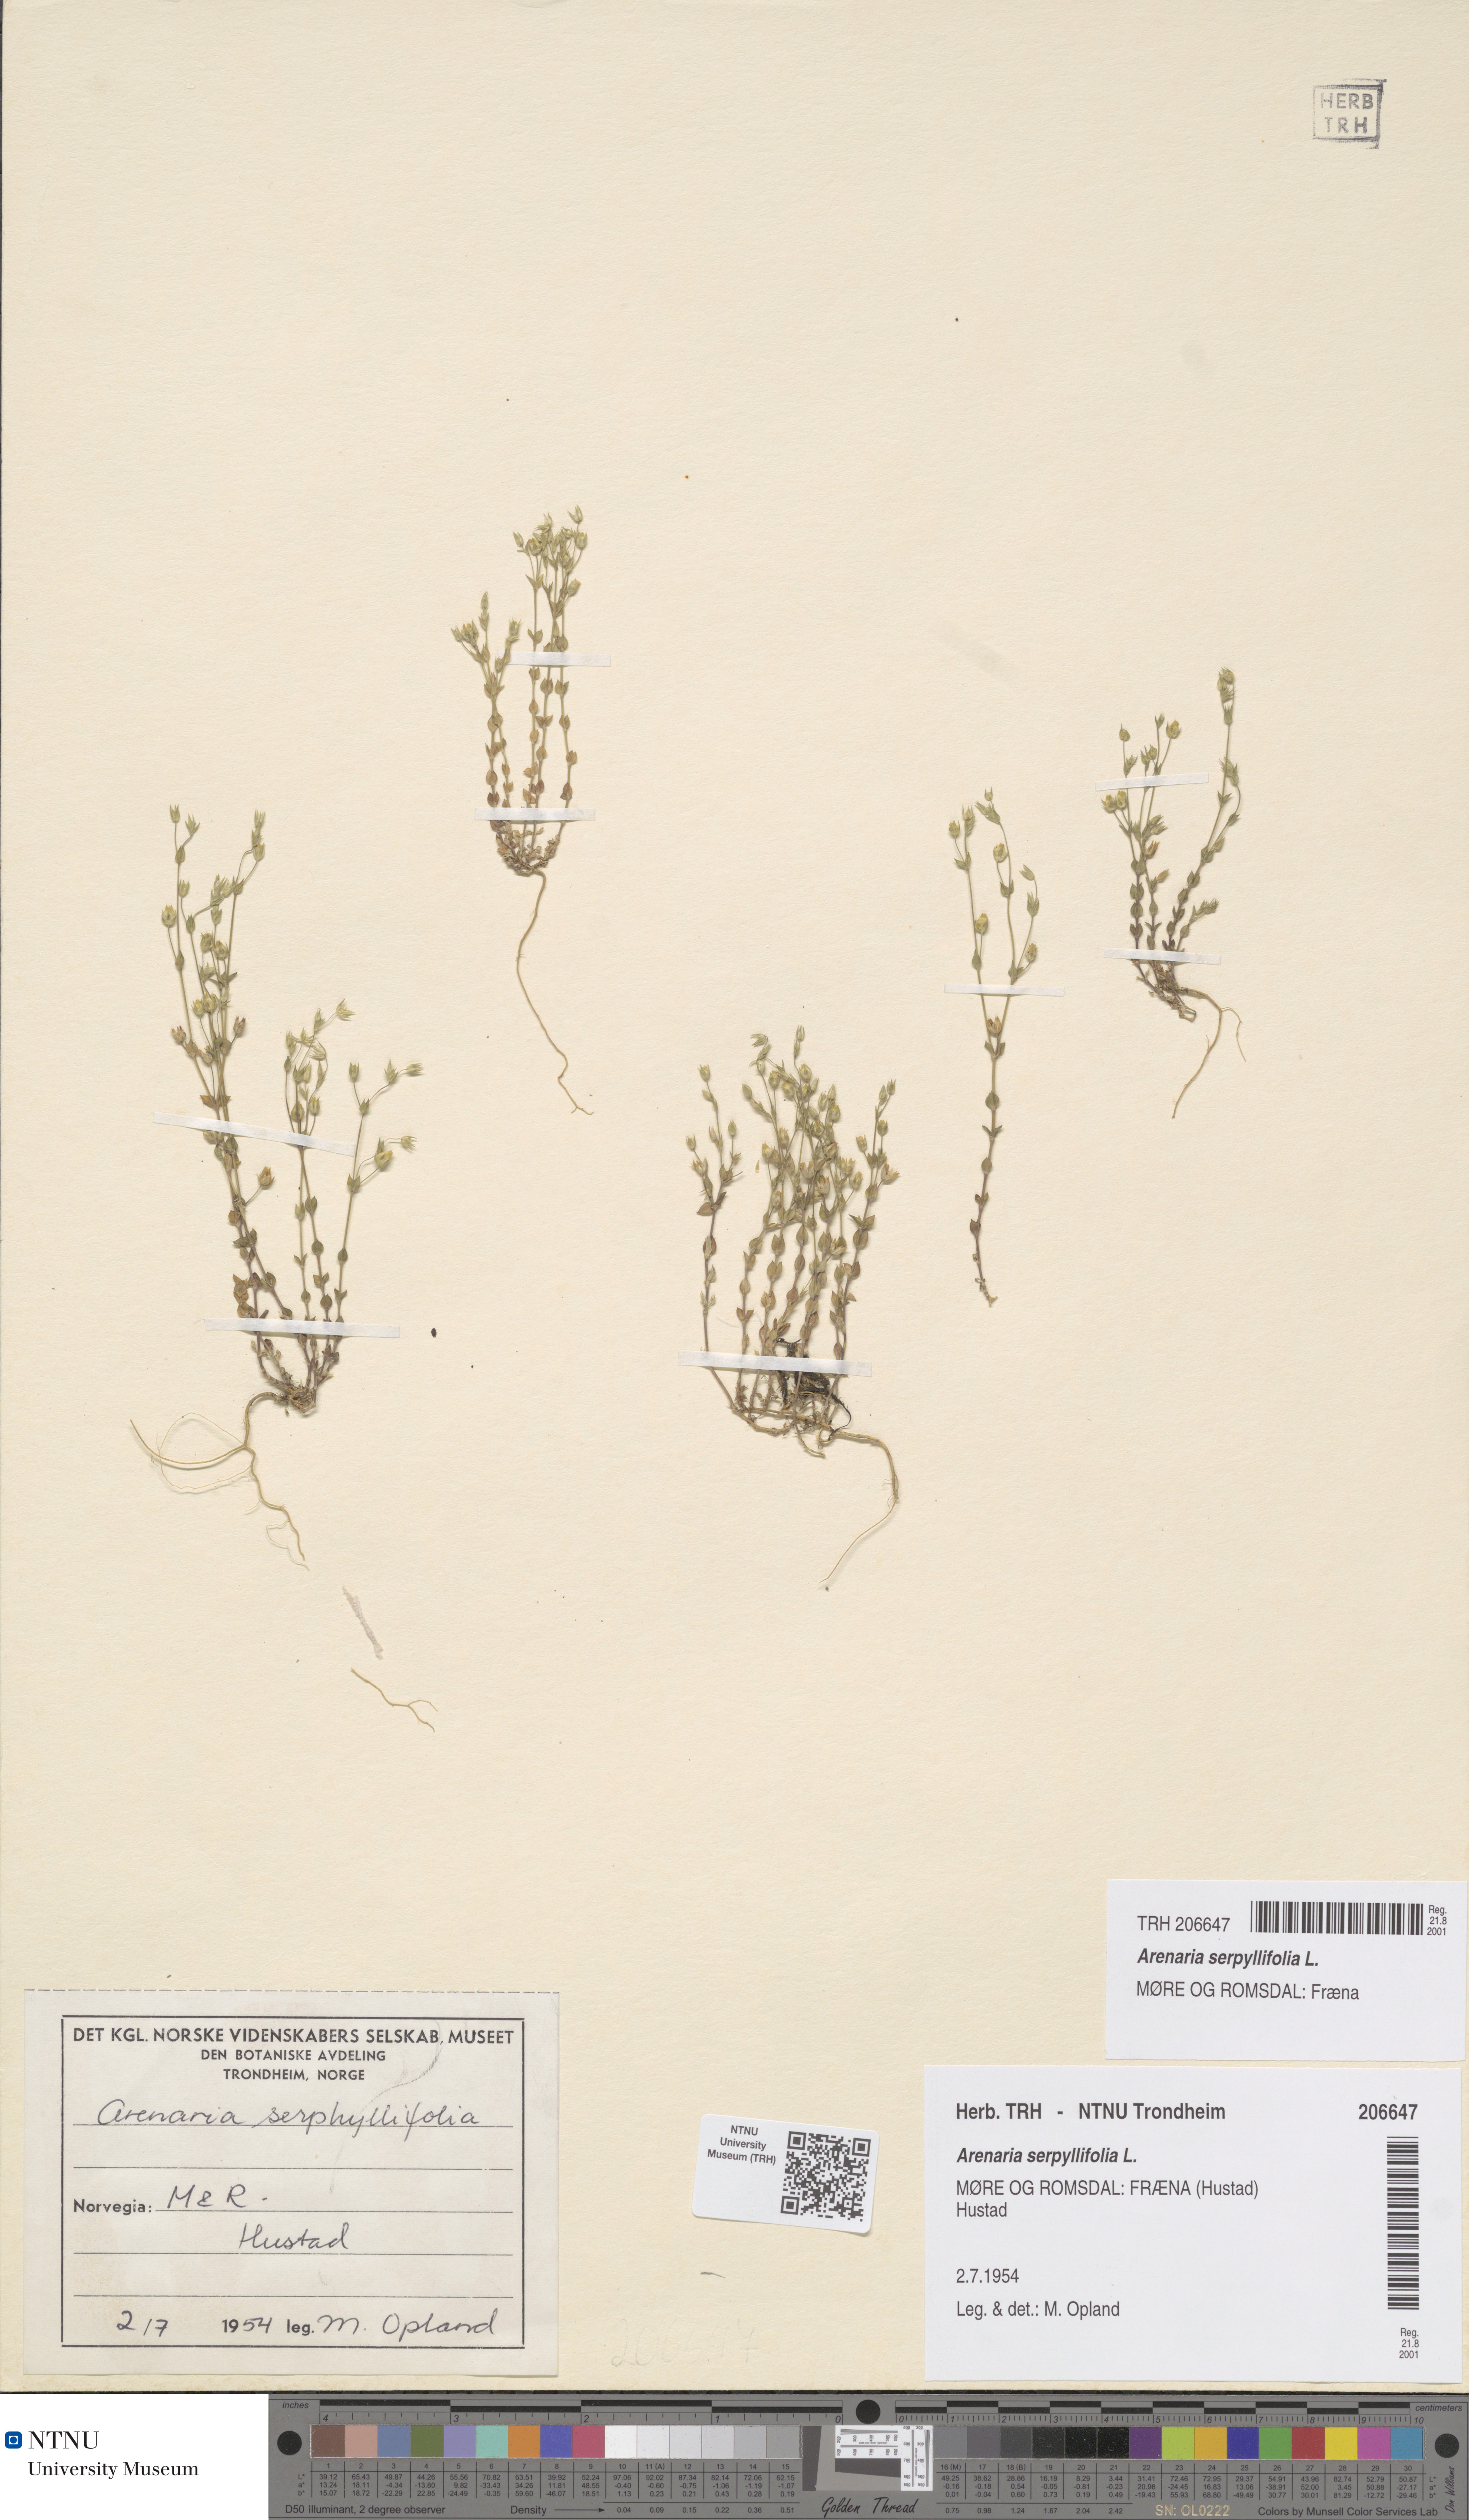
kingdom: Plantae
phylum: Tracheophyta
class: Magnoliopsida
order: Caryophyllales
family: Caryophyllaceae
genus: Arenaria
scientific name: Arenaria serpyllifolia
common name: Thyme-leaved sandwort
